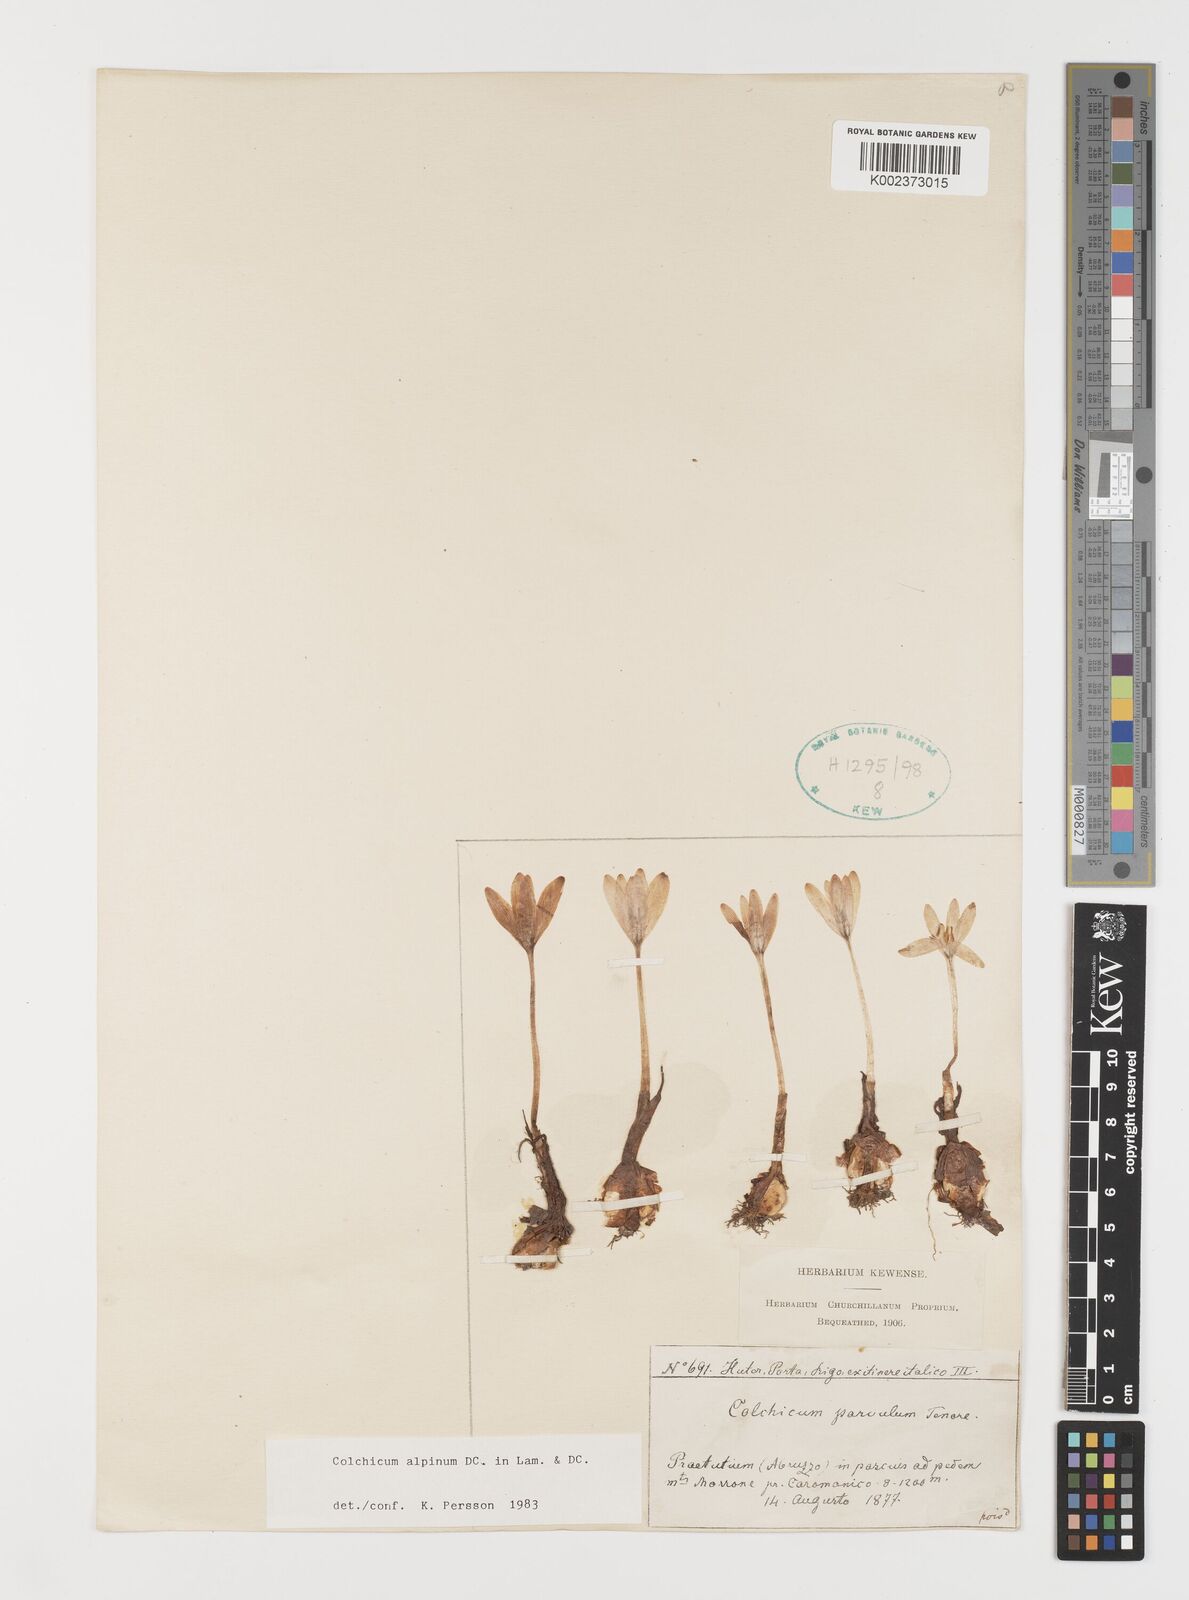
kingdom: Plantae
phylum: Tracheophyta
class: Liliopsida
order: Liliales
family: Colchicaceae
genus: Colchicum
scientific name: Colchicum alpinum
